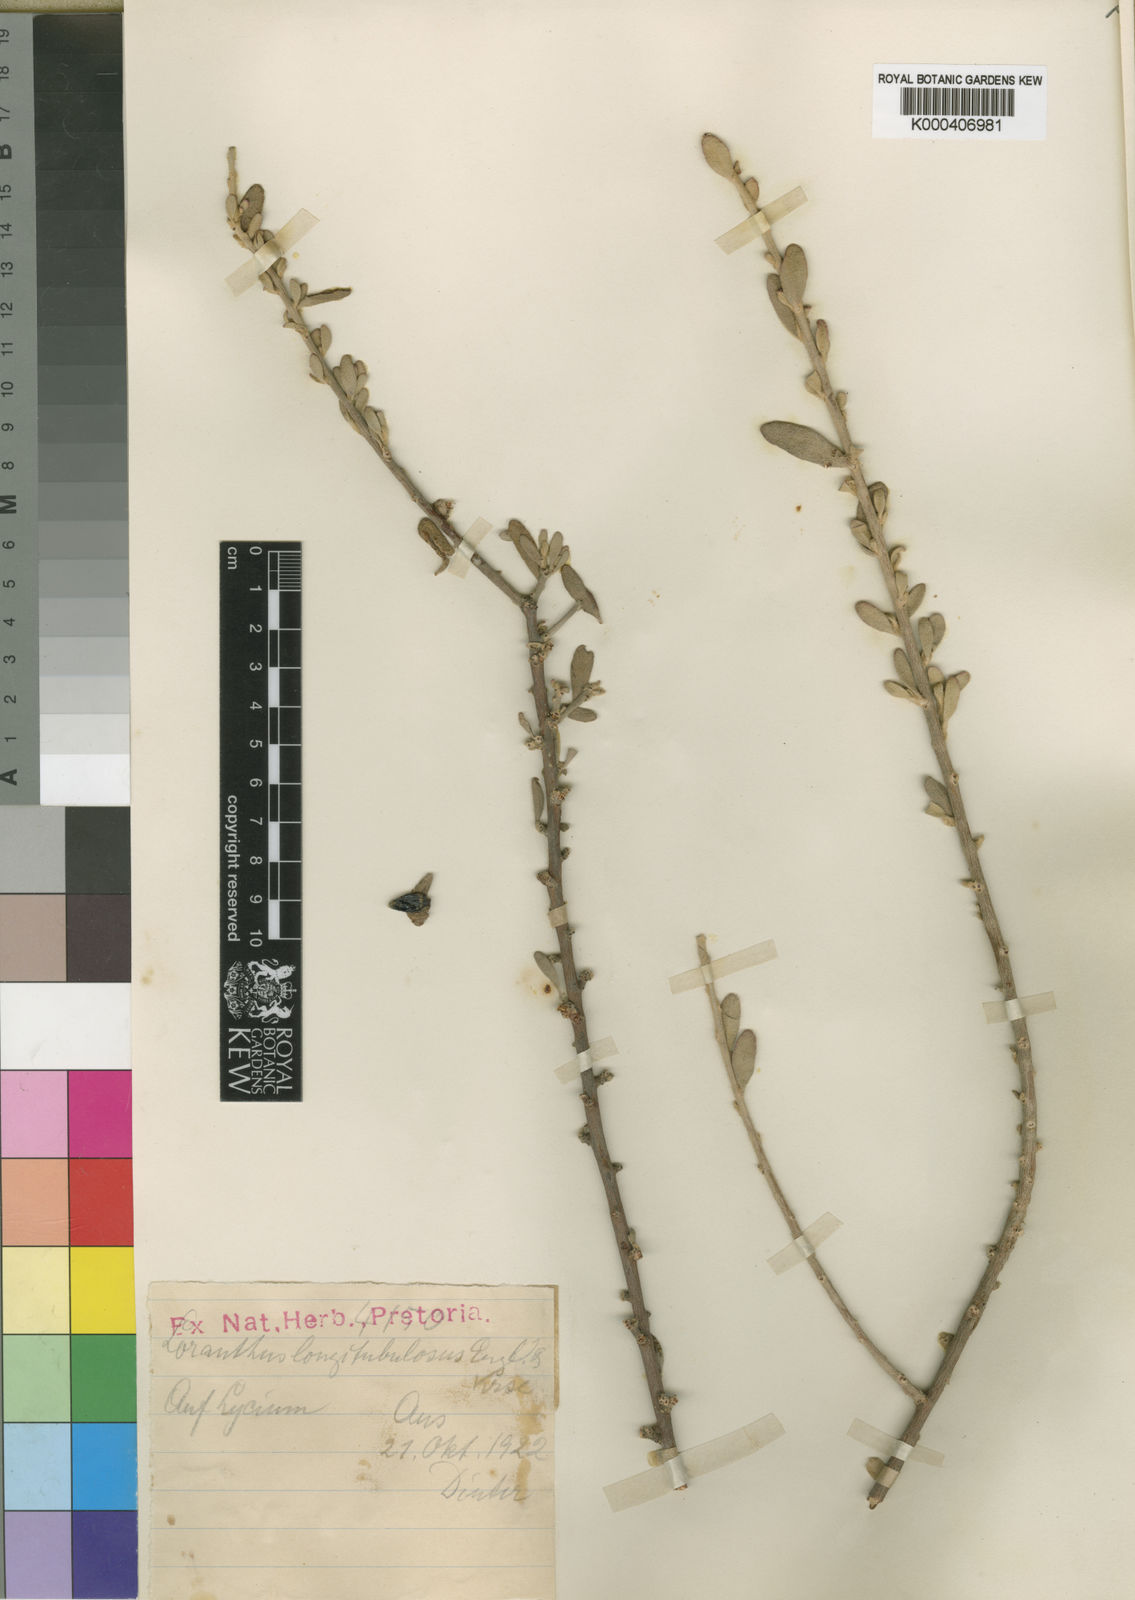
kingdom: Plantae
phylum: Tracheophyta
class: Magnoliopsida
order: Santalales
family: Loranthaceae
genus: Septulina
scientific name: Septulina glauca
